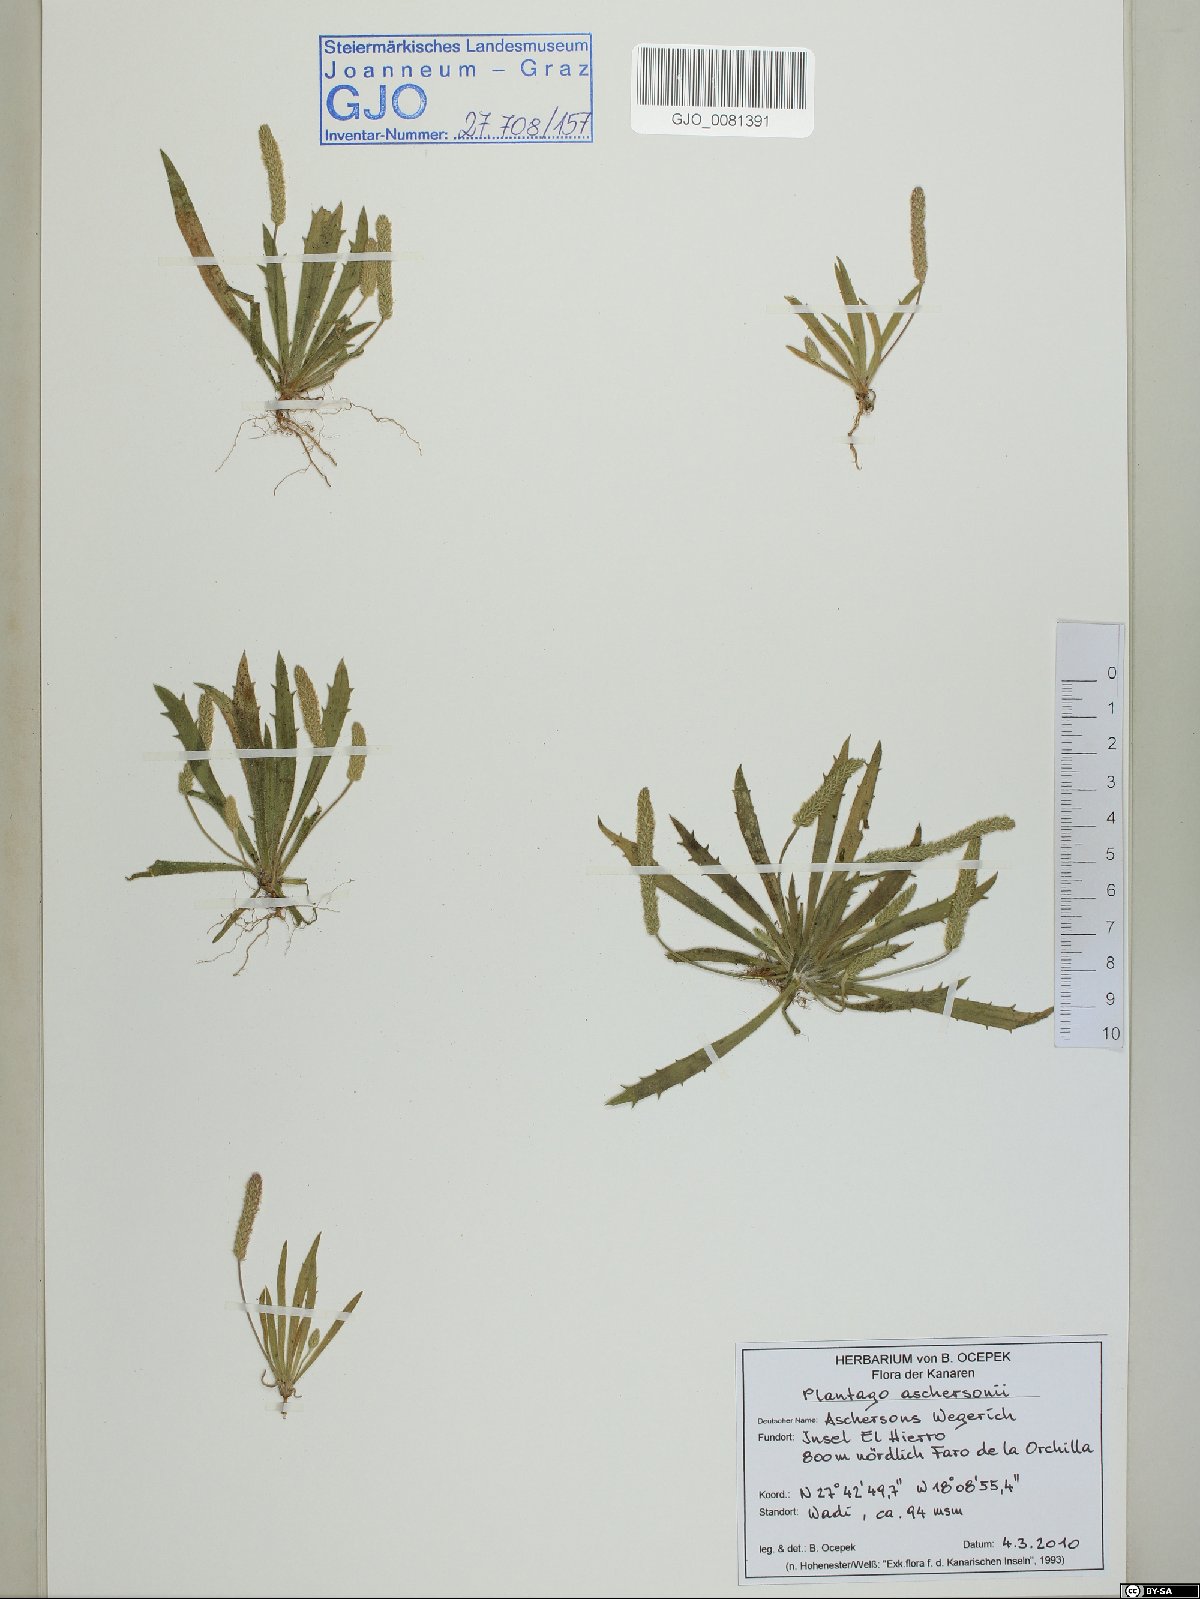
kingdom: Plantae
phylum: Tracheophyta
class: Magnoliopsida
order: Lamiales
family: Plantaginaceae
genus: Plantago
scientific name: Plantago coronopus
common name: Buck's-horn plantain
